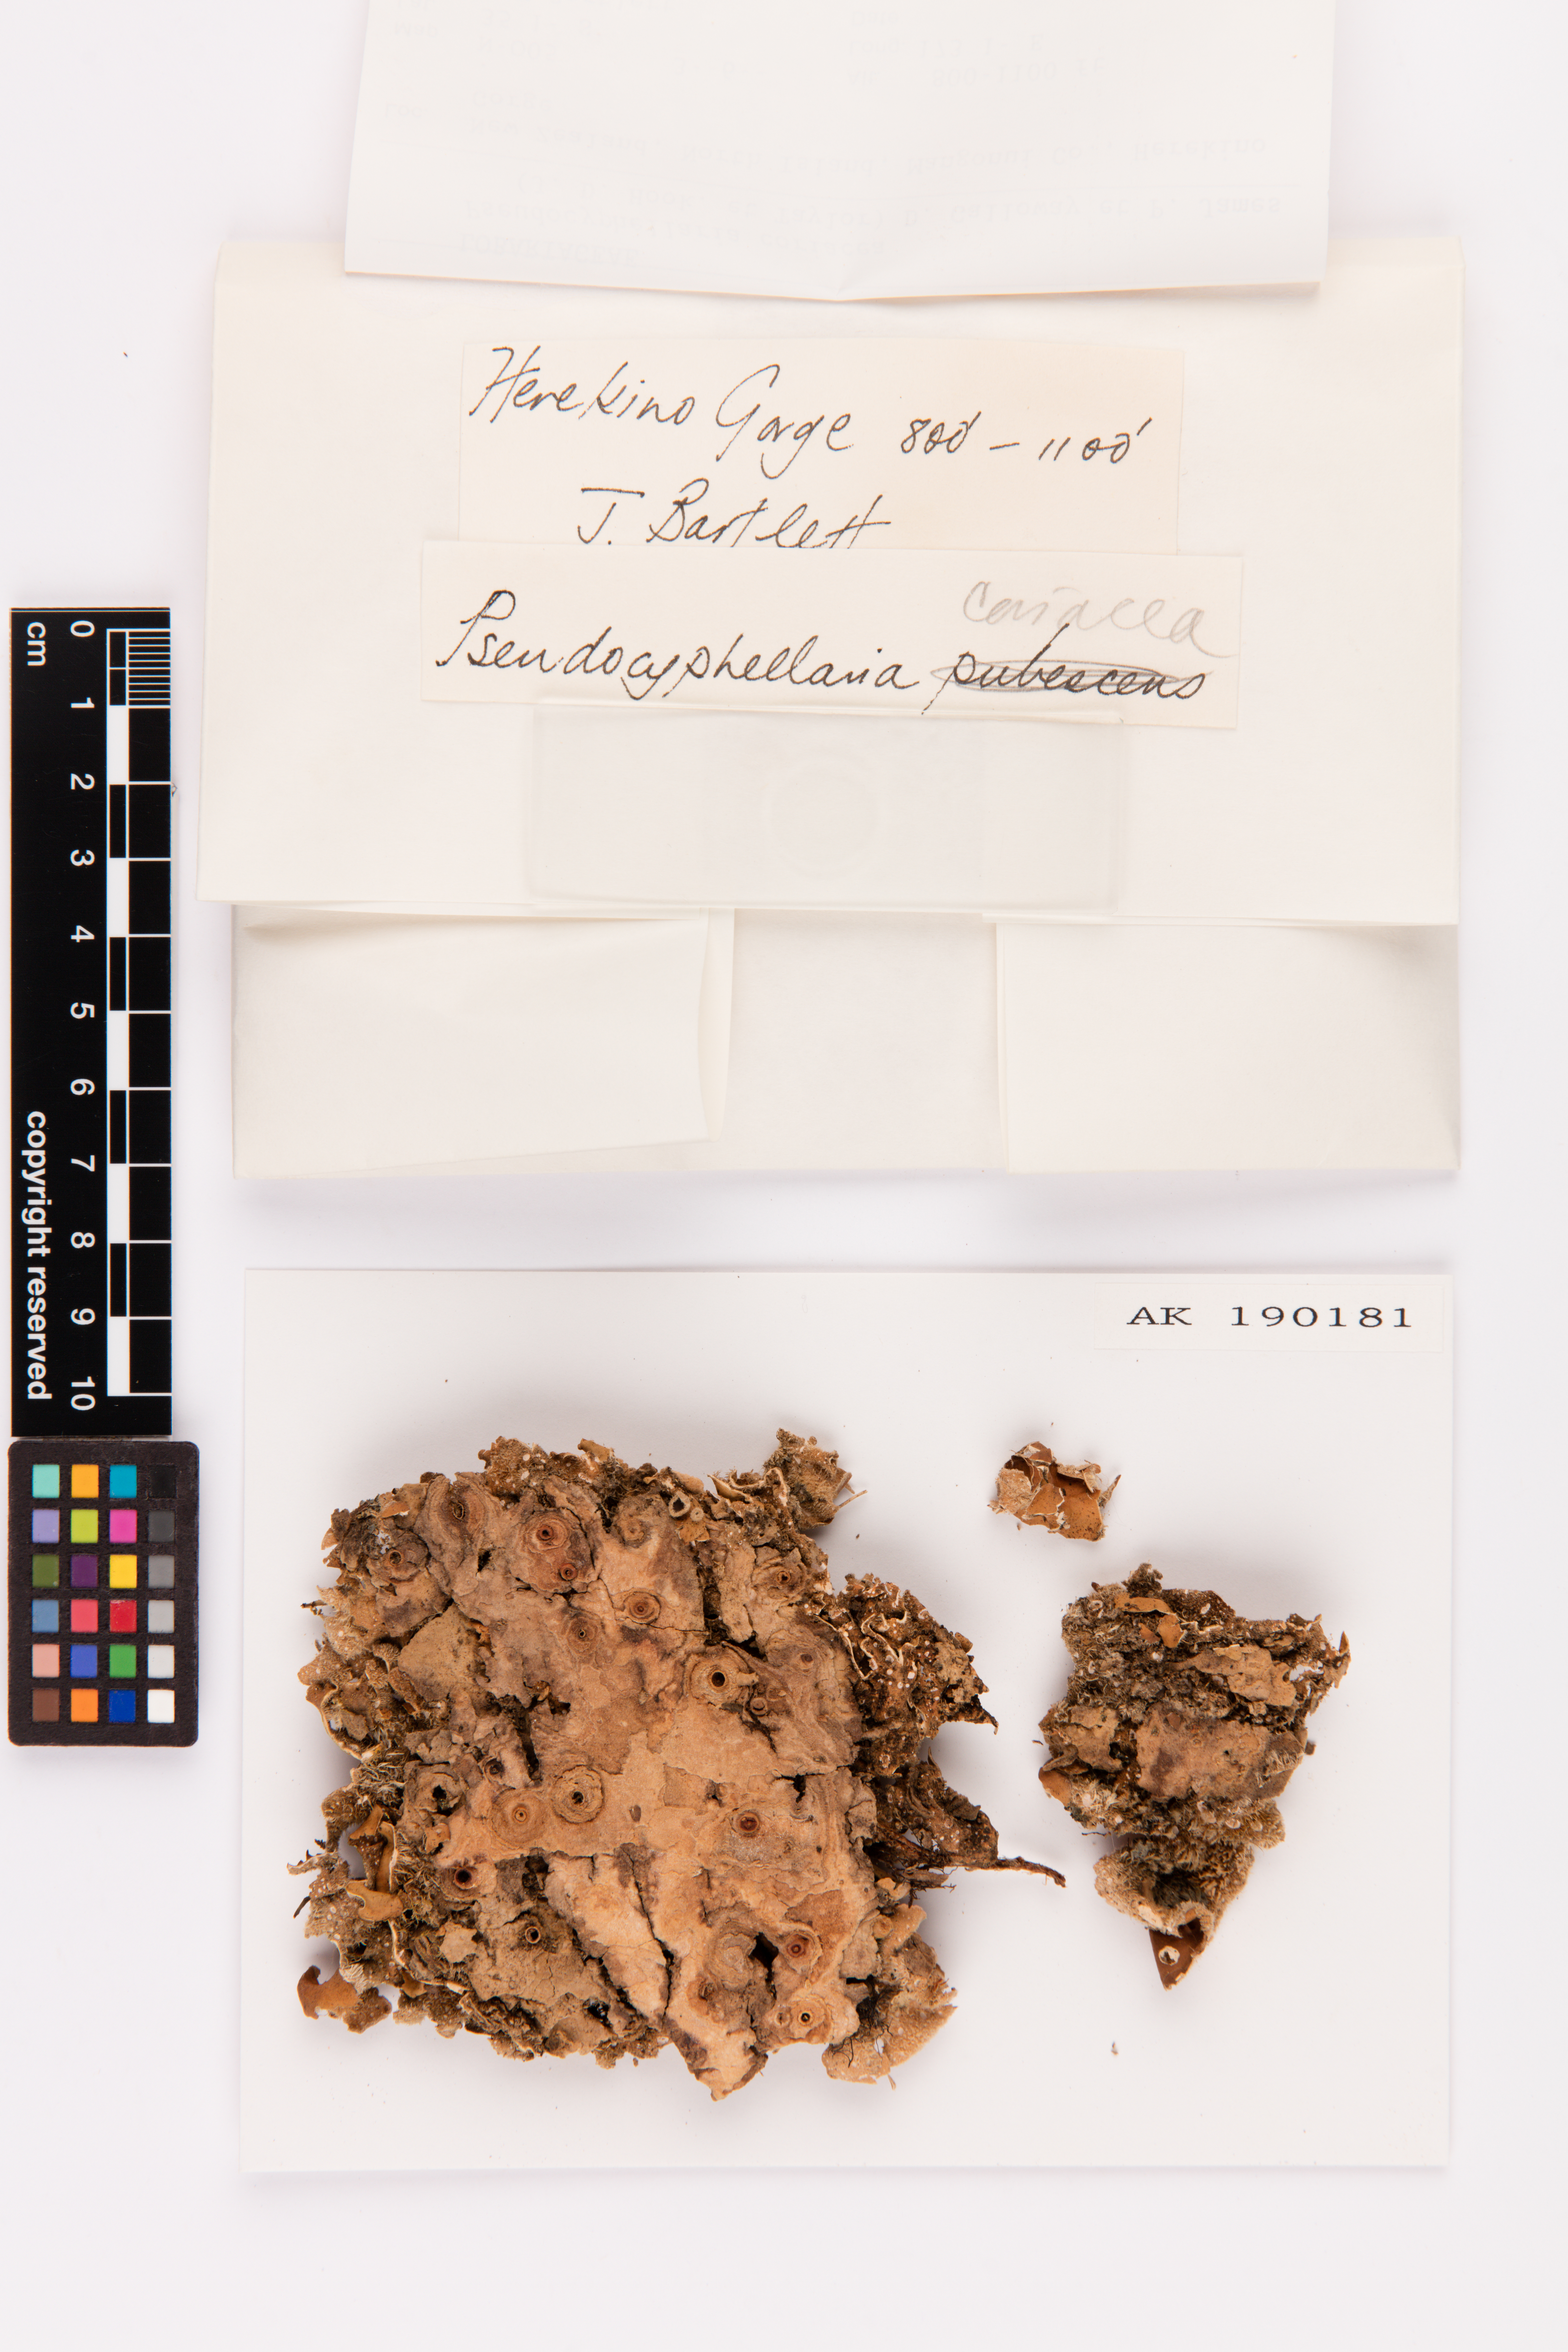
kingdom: Fungi
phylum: Ascomycota
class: Lecanoromycetes
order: Peltigerales
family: Lobariaceae
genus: Pseudocyphellaria
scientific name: Pseudocyphellaria coriacea
